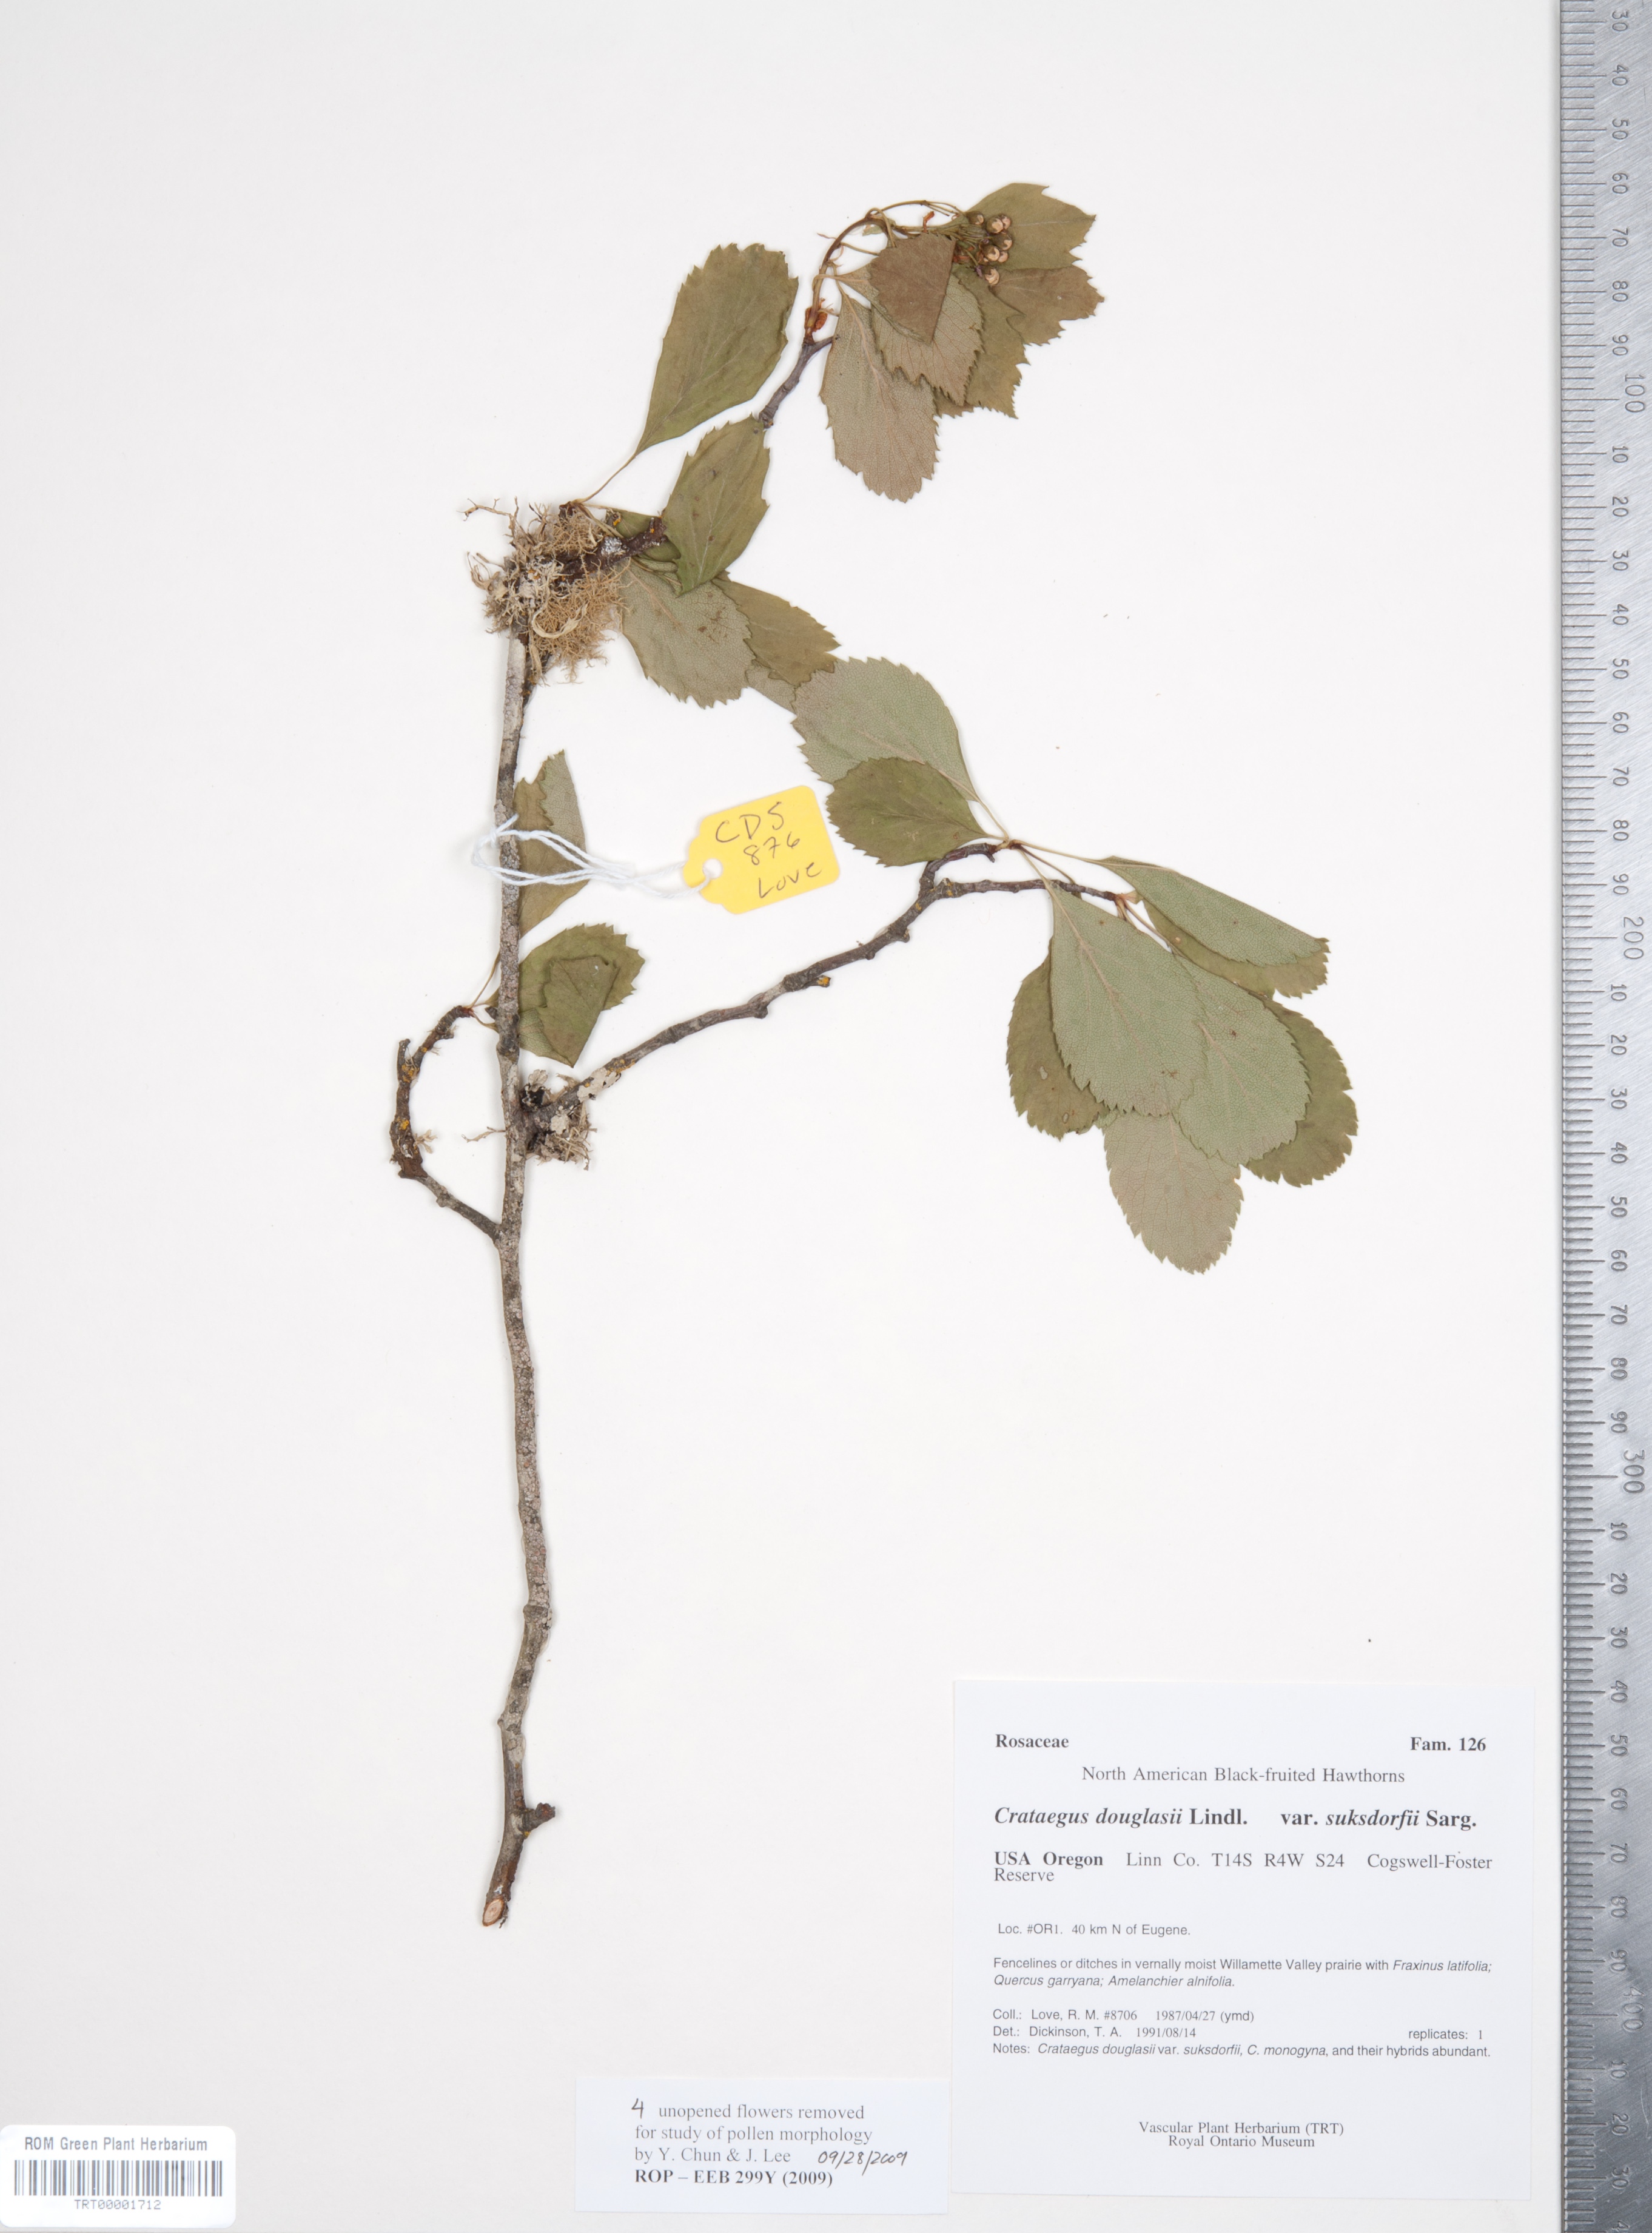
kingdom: Plantae
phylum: Tracheophyta
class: Magnoliopsida
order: Rosales
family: Rosaceae
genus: Crataegus
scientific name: Crataegus gaylussacia
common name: Huckleberry hawthorn
